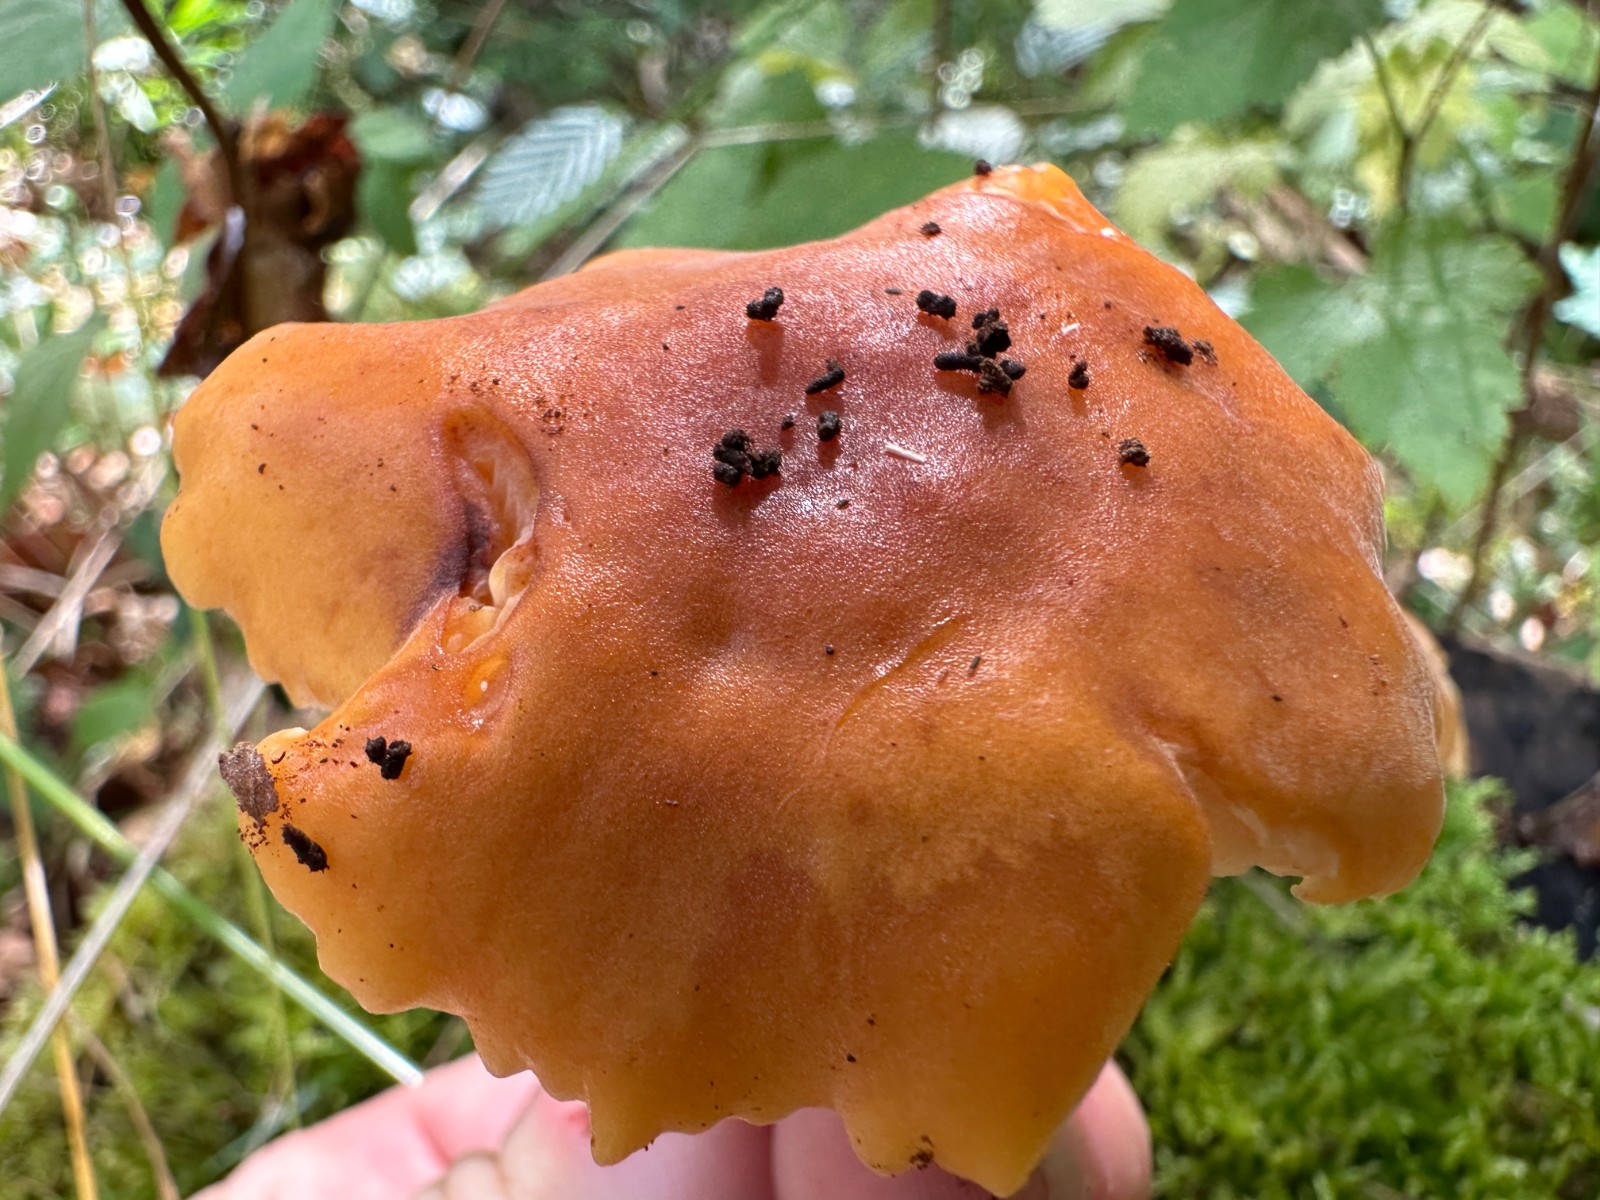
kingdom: Fungi
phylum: Basidiomycota
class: Agaricomycetes
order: Agaricales
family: Physalacriaceae
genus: Flammulina
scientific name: Flammulina
